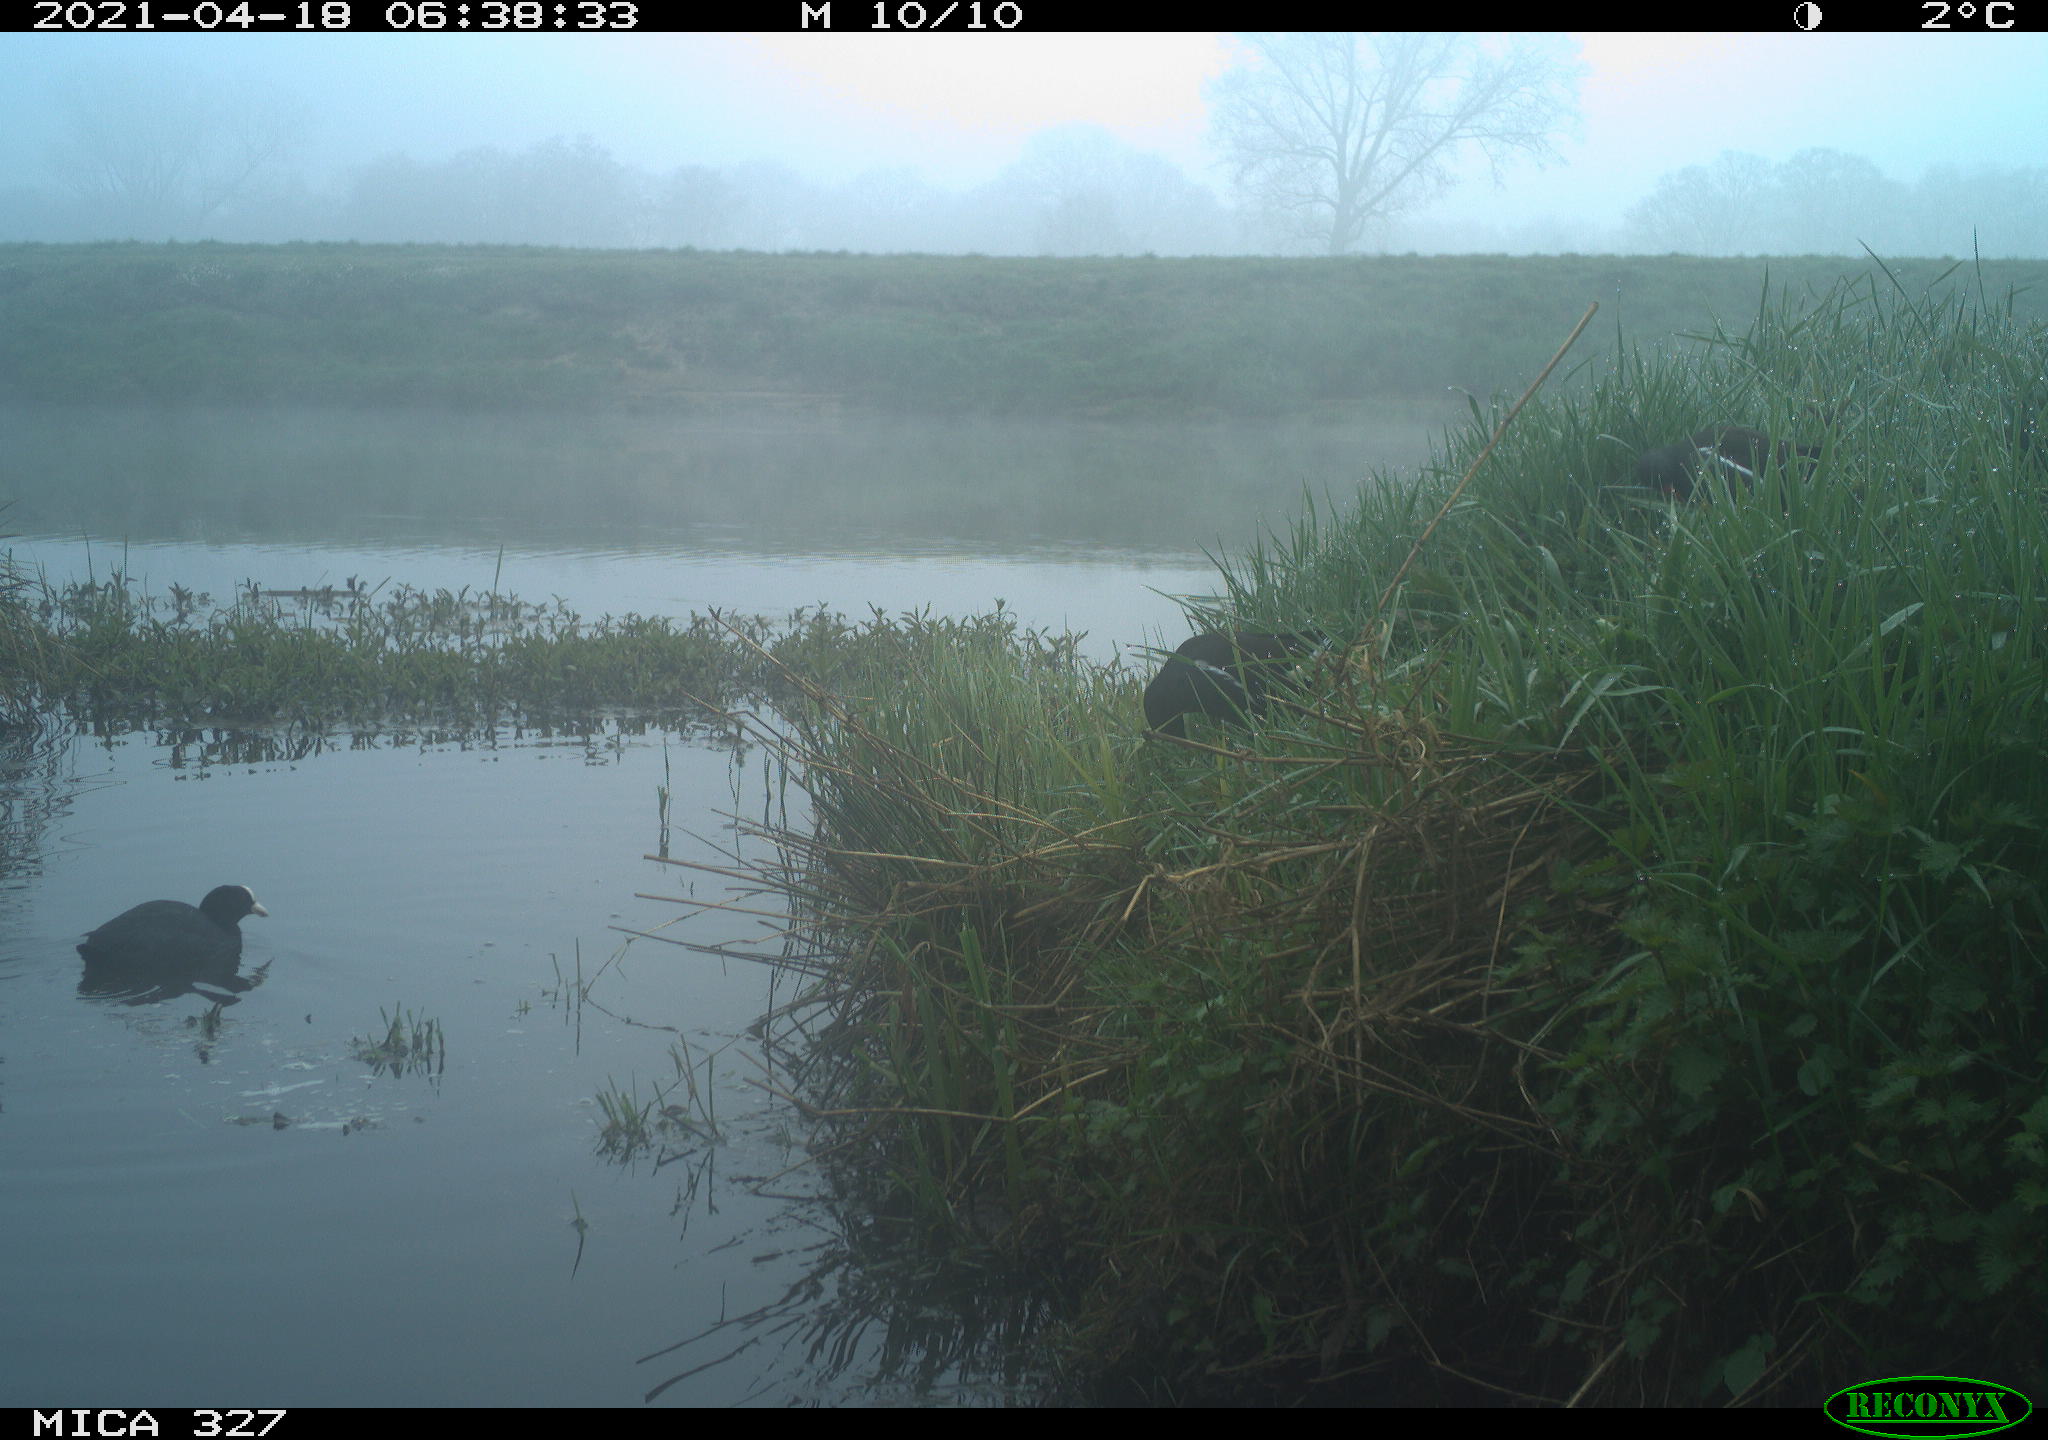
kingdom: Animalia
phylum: Chordata
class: Aves
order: Gruiformes
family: Rallidae
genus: Gallinula
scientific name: Gallinula chloropus
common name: Common moorhen
